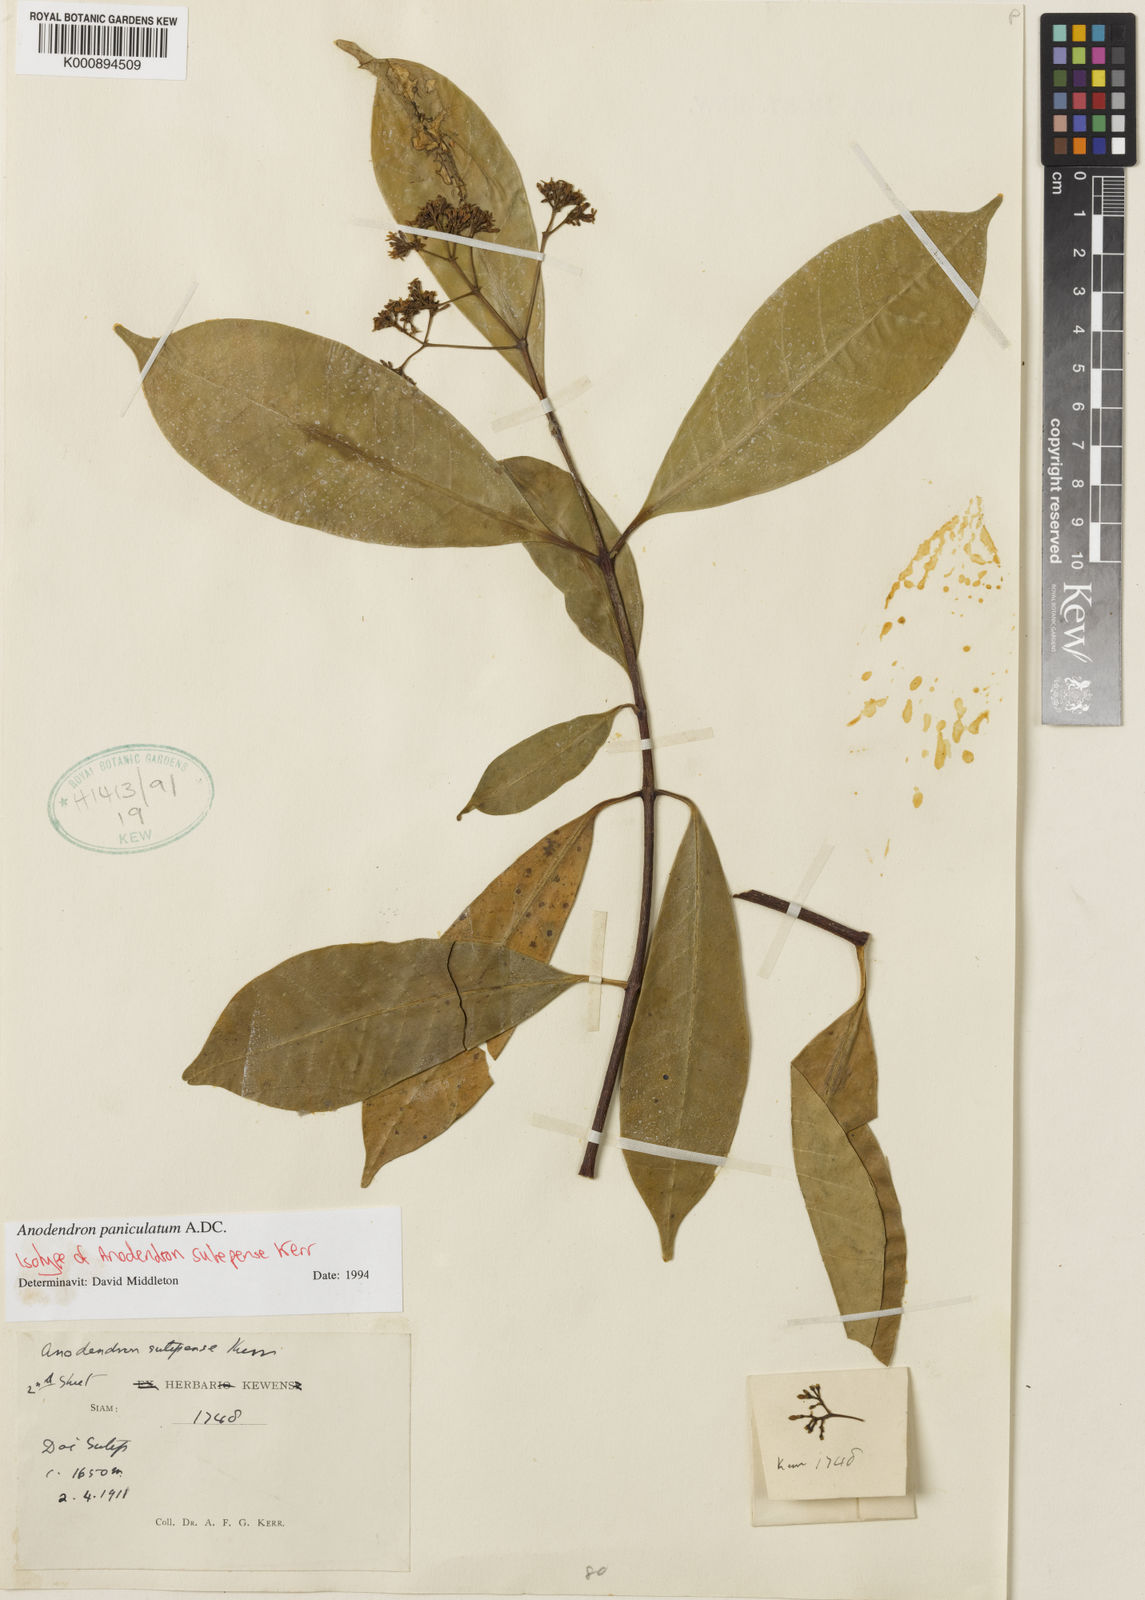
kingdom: Plantae
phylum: Tracheophyta
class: Magnoliopsida
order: Gentianales
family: Apocynaceae
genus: Anodendron
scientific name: Anodendron parviflorum
